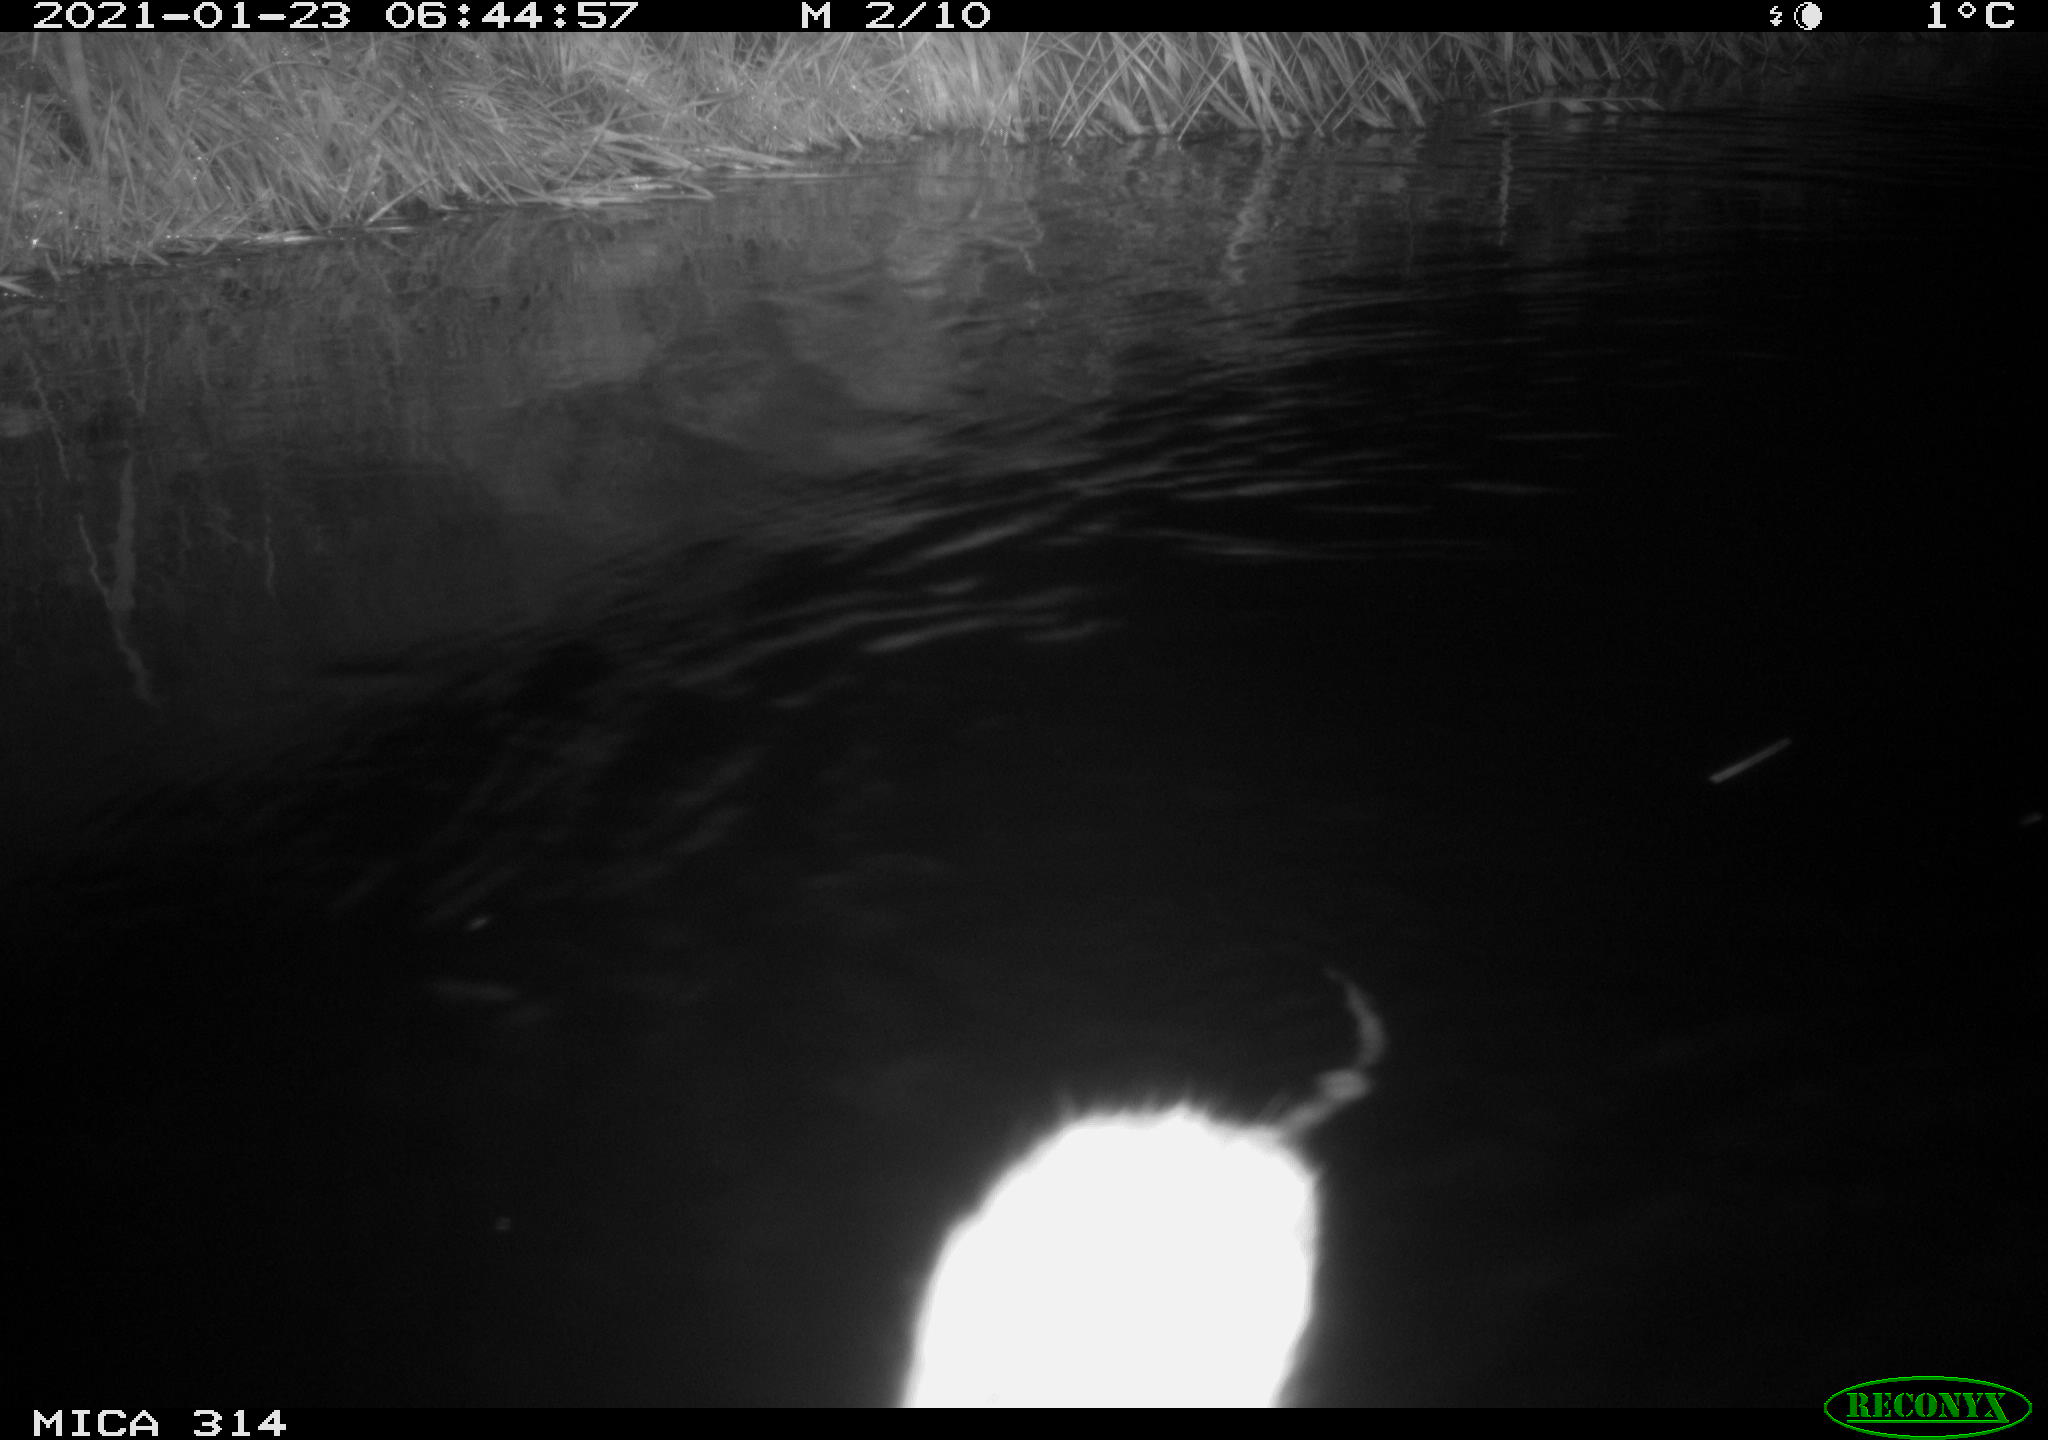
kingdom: Animalia
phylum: Chordata
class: Mammalia
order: Rodentia
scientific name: Rodentia
